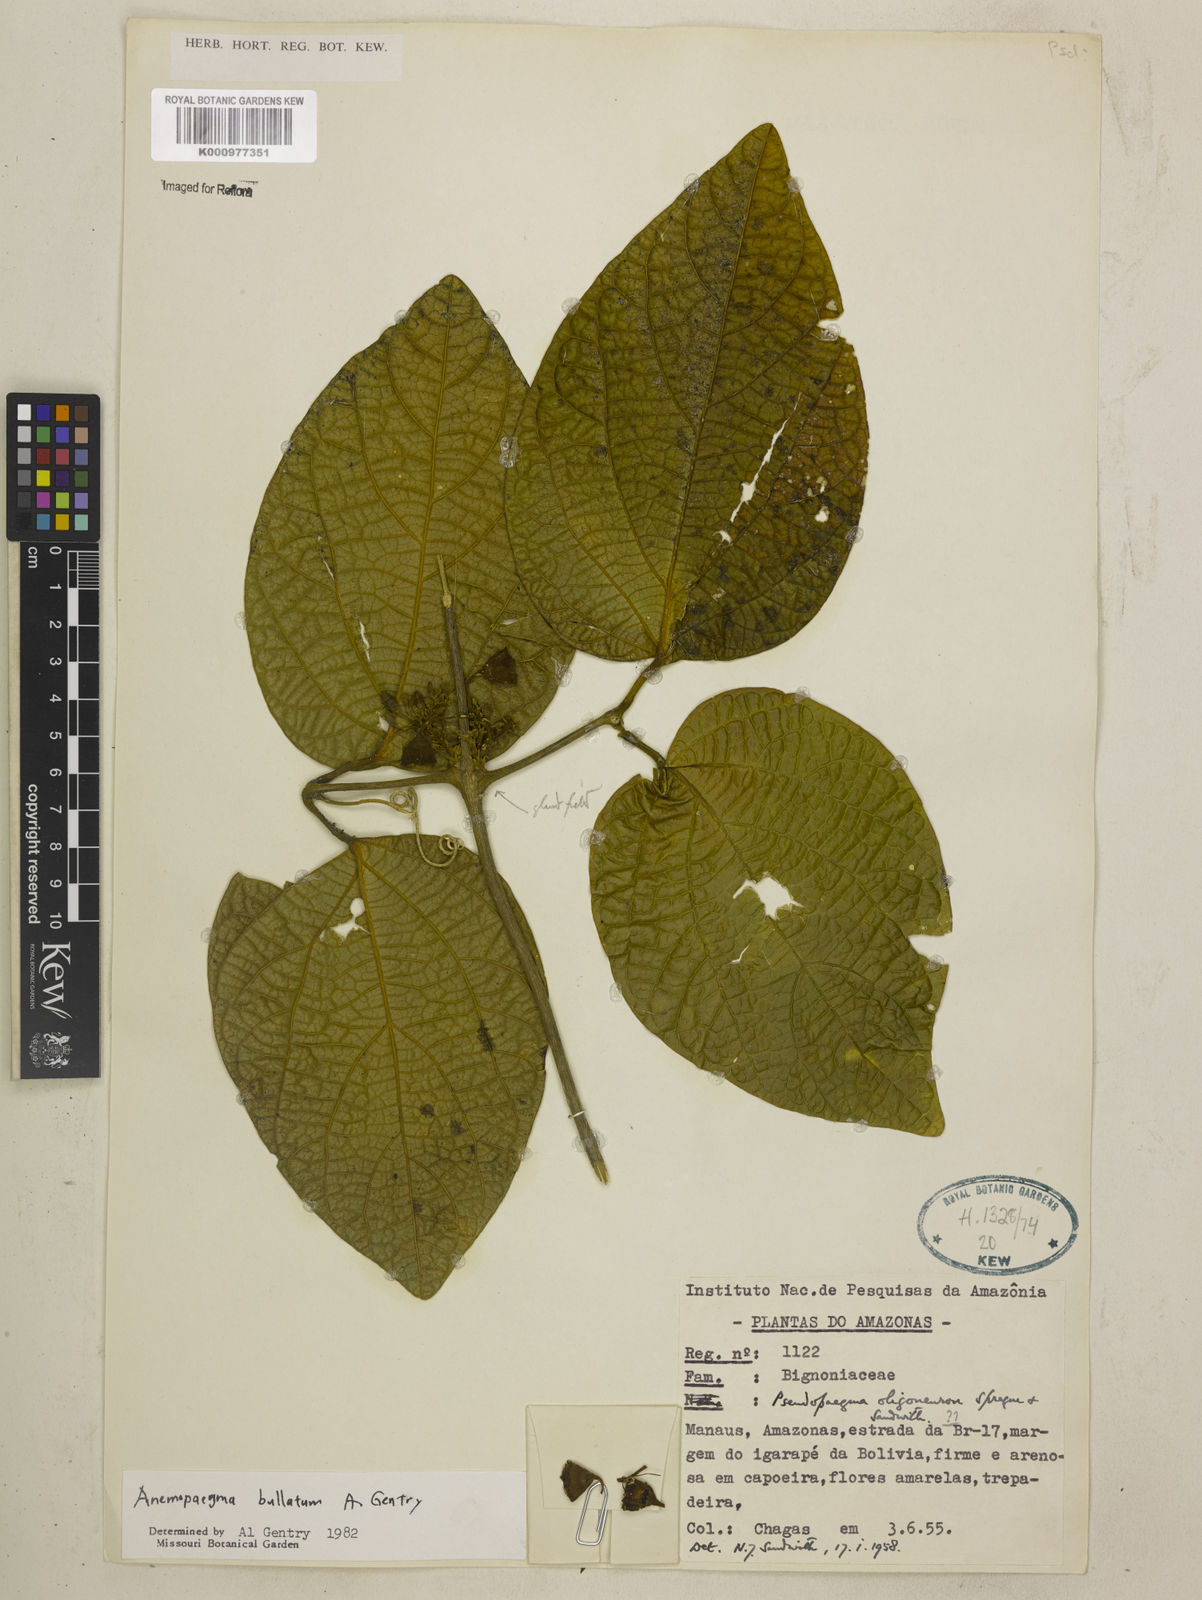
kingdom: Plantae
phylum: Tracheophyta
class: Magnoliopsida
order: Lamiales
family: Bignoniaceae
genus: Anemopaegma
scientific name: Anemopaegma oligoneuron
